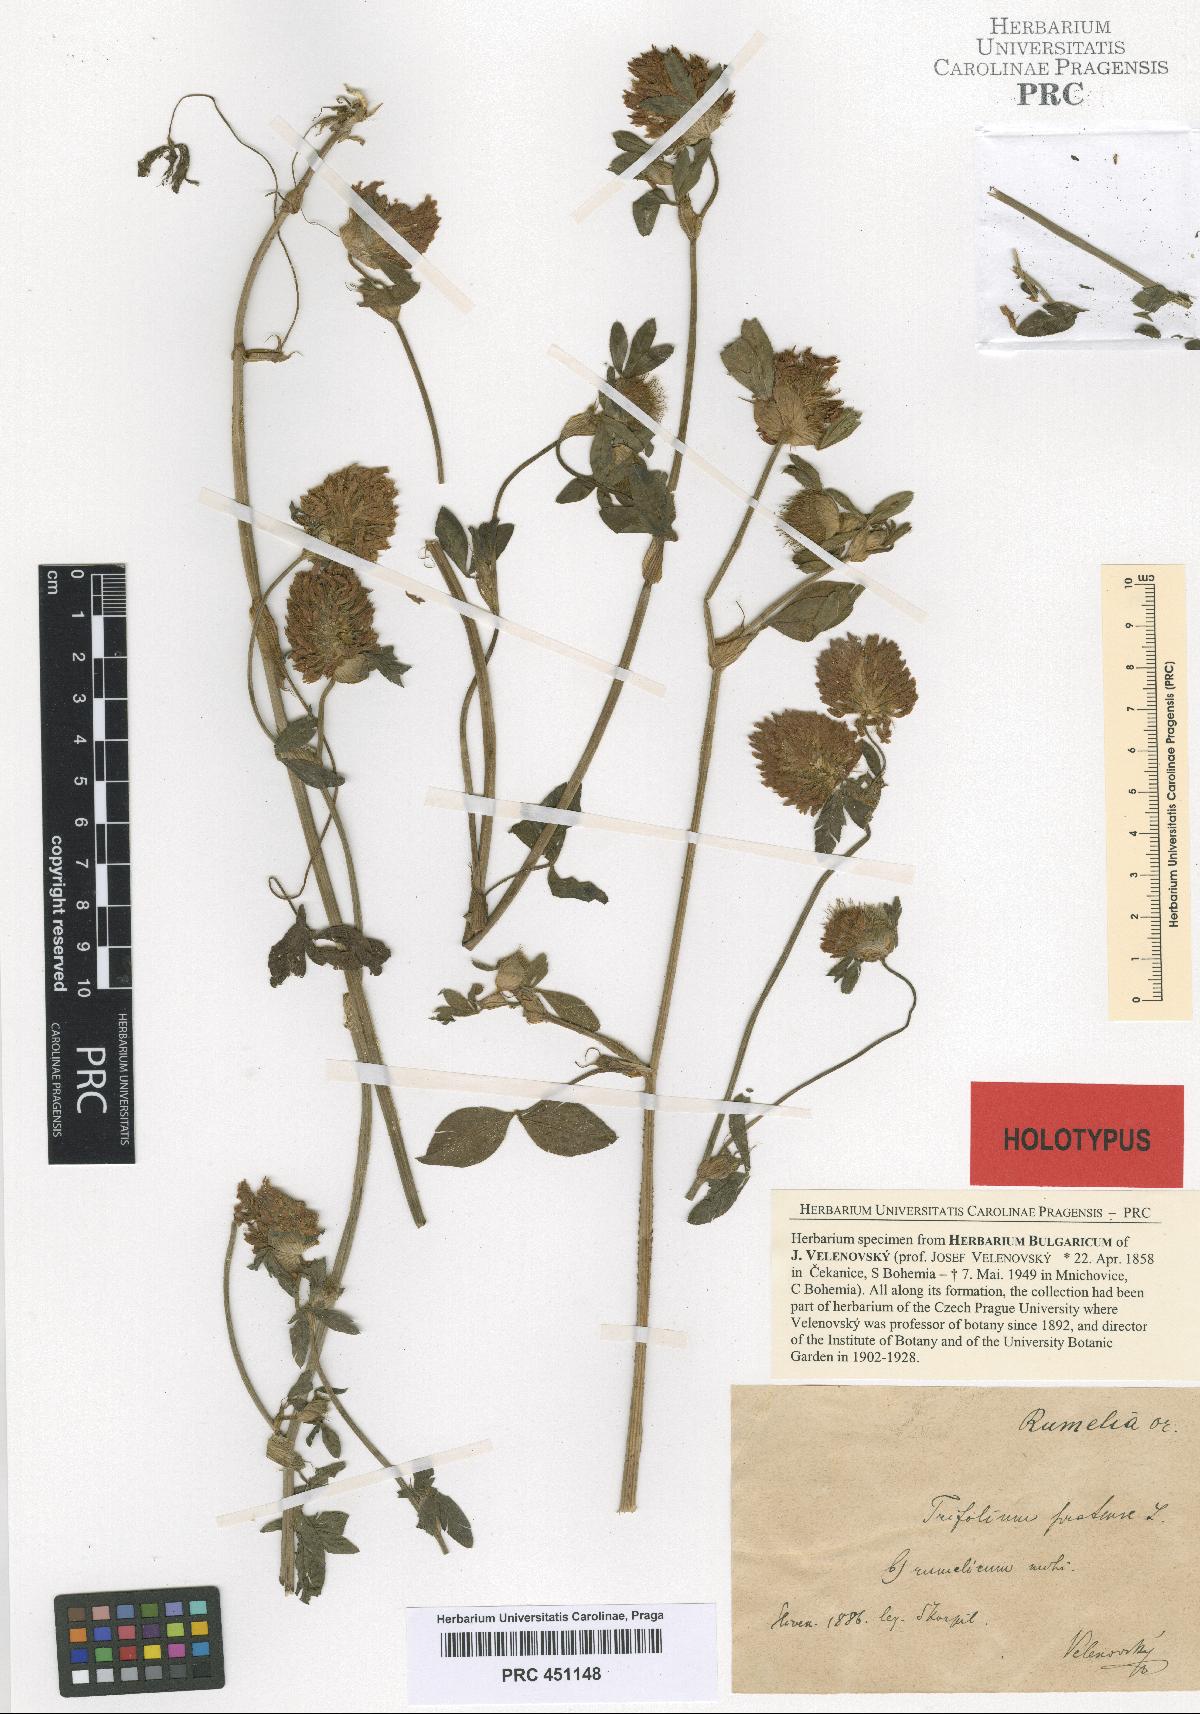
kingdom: Plantae
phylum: Tracheophyta
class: Magnoliopsida
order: Fabales
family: Fabaceae
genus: Trifolium
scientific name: Trifolium pratense
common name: Red clover
